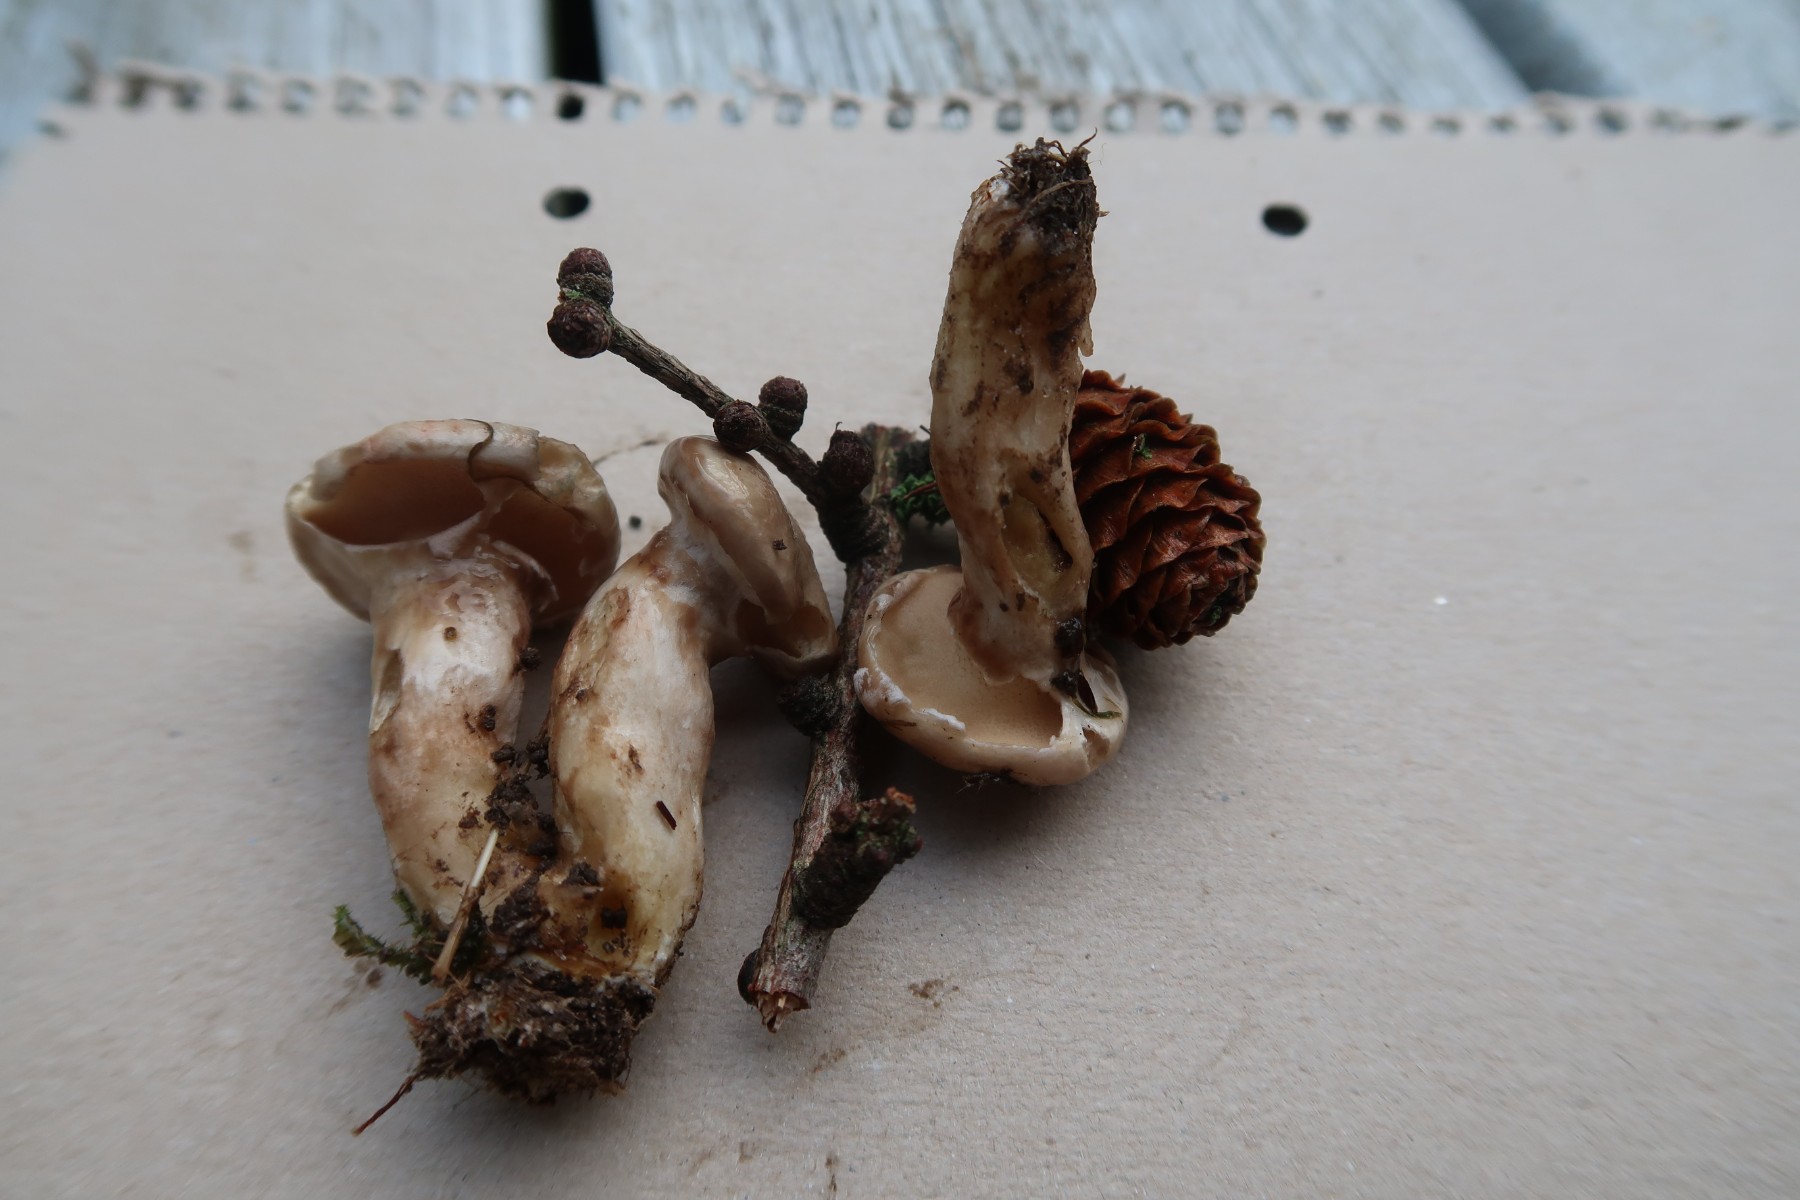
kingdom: Fungi
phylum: Basidiomycota
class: Agaricomycetes
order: Boletales
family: Suillaceae
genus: Suillus
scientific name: Suillus viscidus
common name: olivengrå slimrørhat
